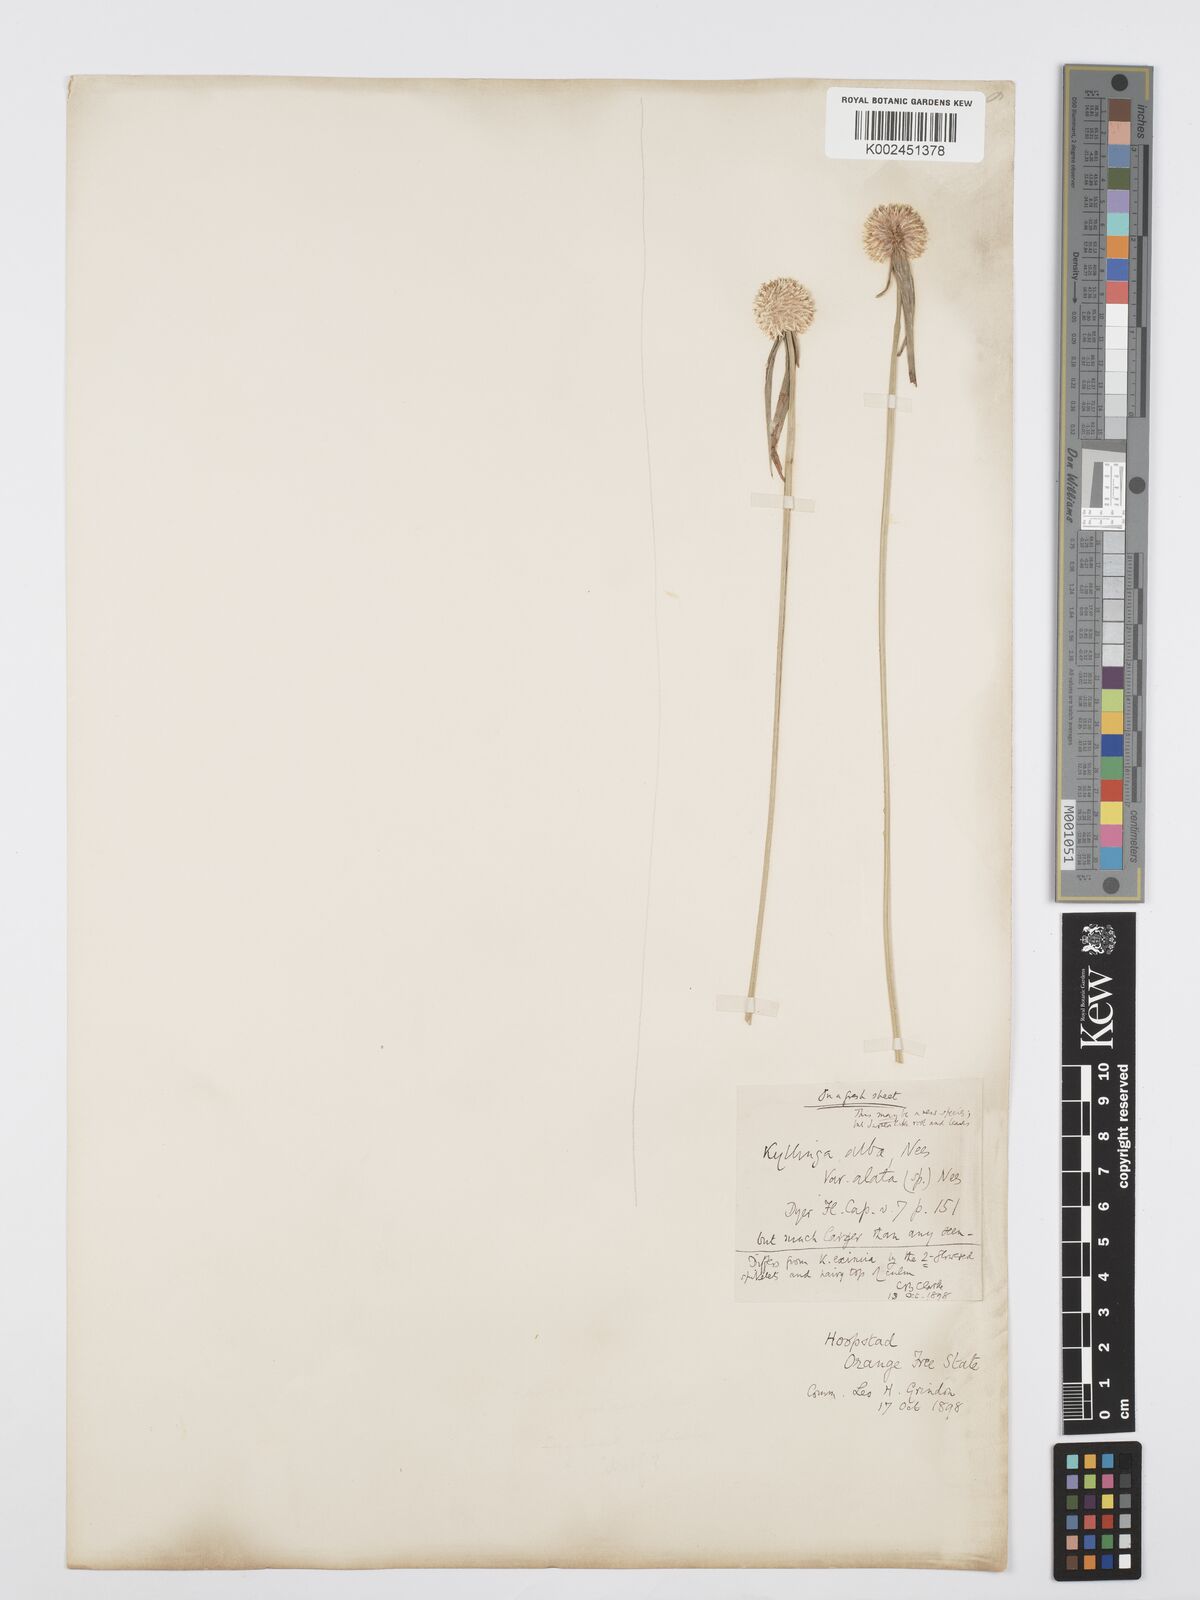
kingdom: Plantae
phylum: Tracheophyta
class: Liliopsida
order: Poales
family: Cyperaceae
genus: Cyperus
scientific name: Cyperus
